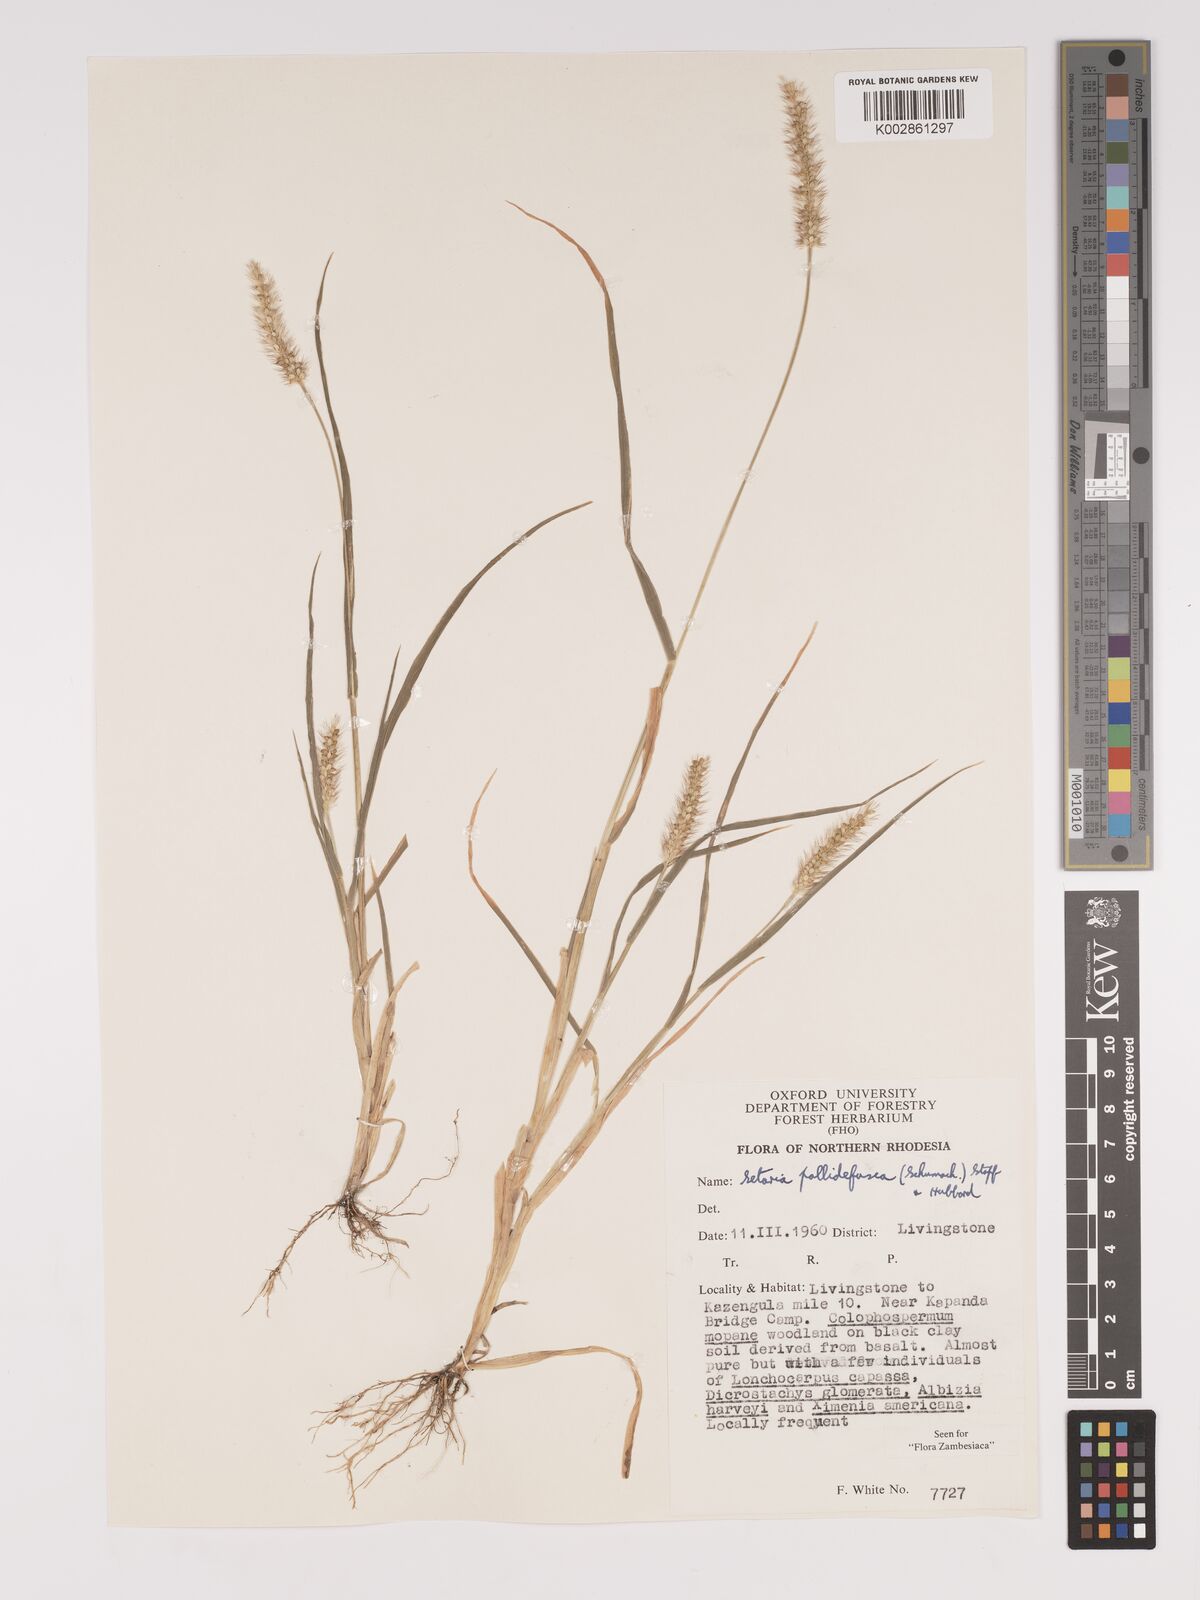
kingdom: Plantae
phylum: Tracheophyta
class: Liliopsida
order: Poales
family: Poaceae
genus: Setaria
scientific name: Setaria pumila
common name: Yellow bristle-grass
